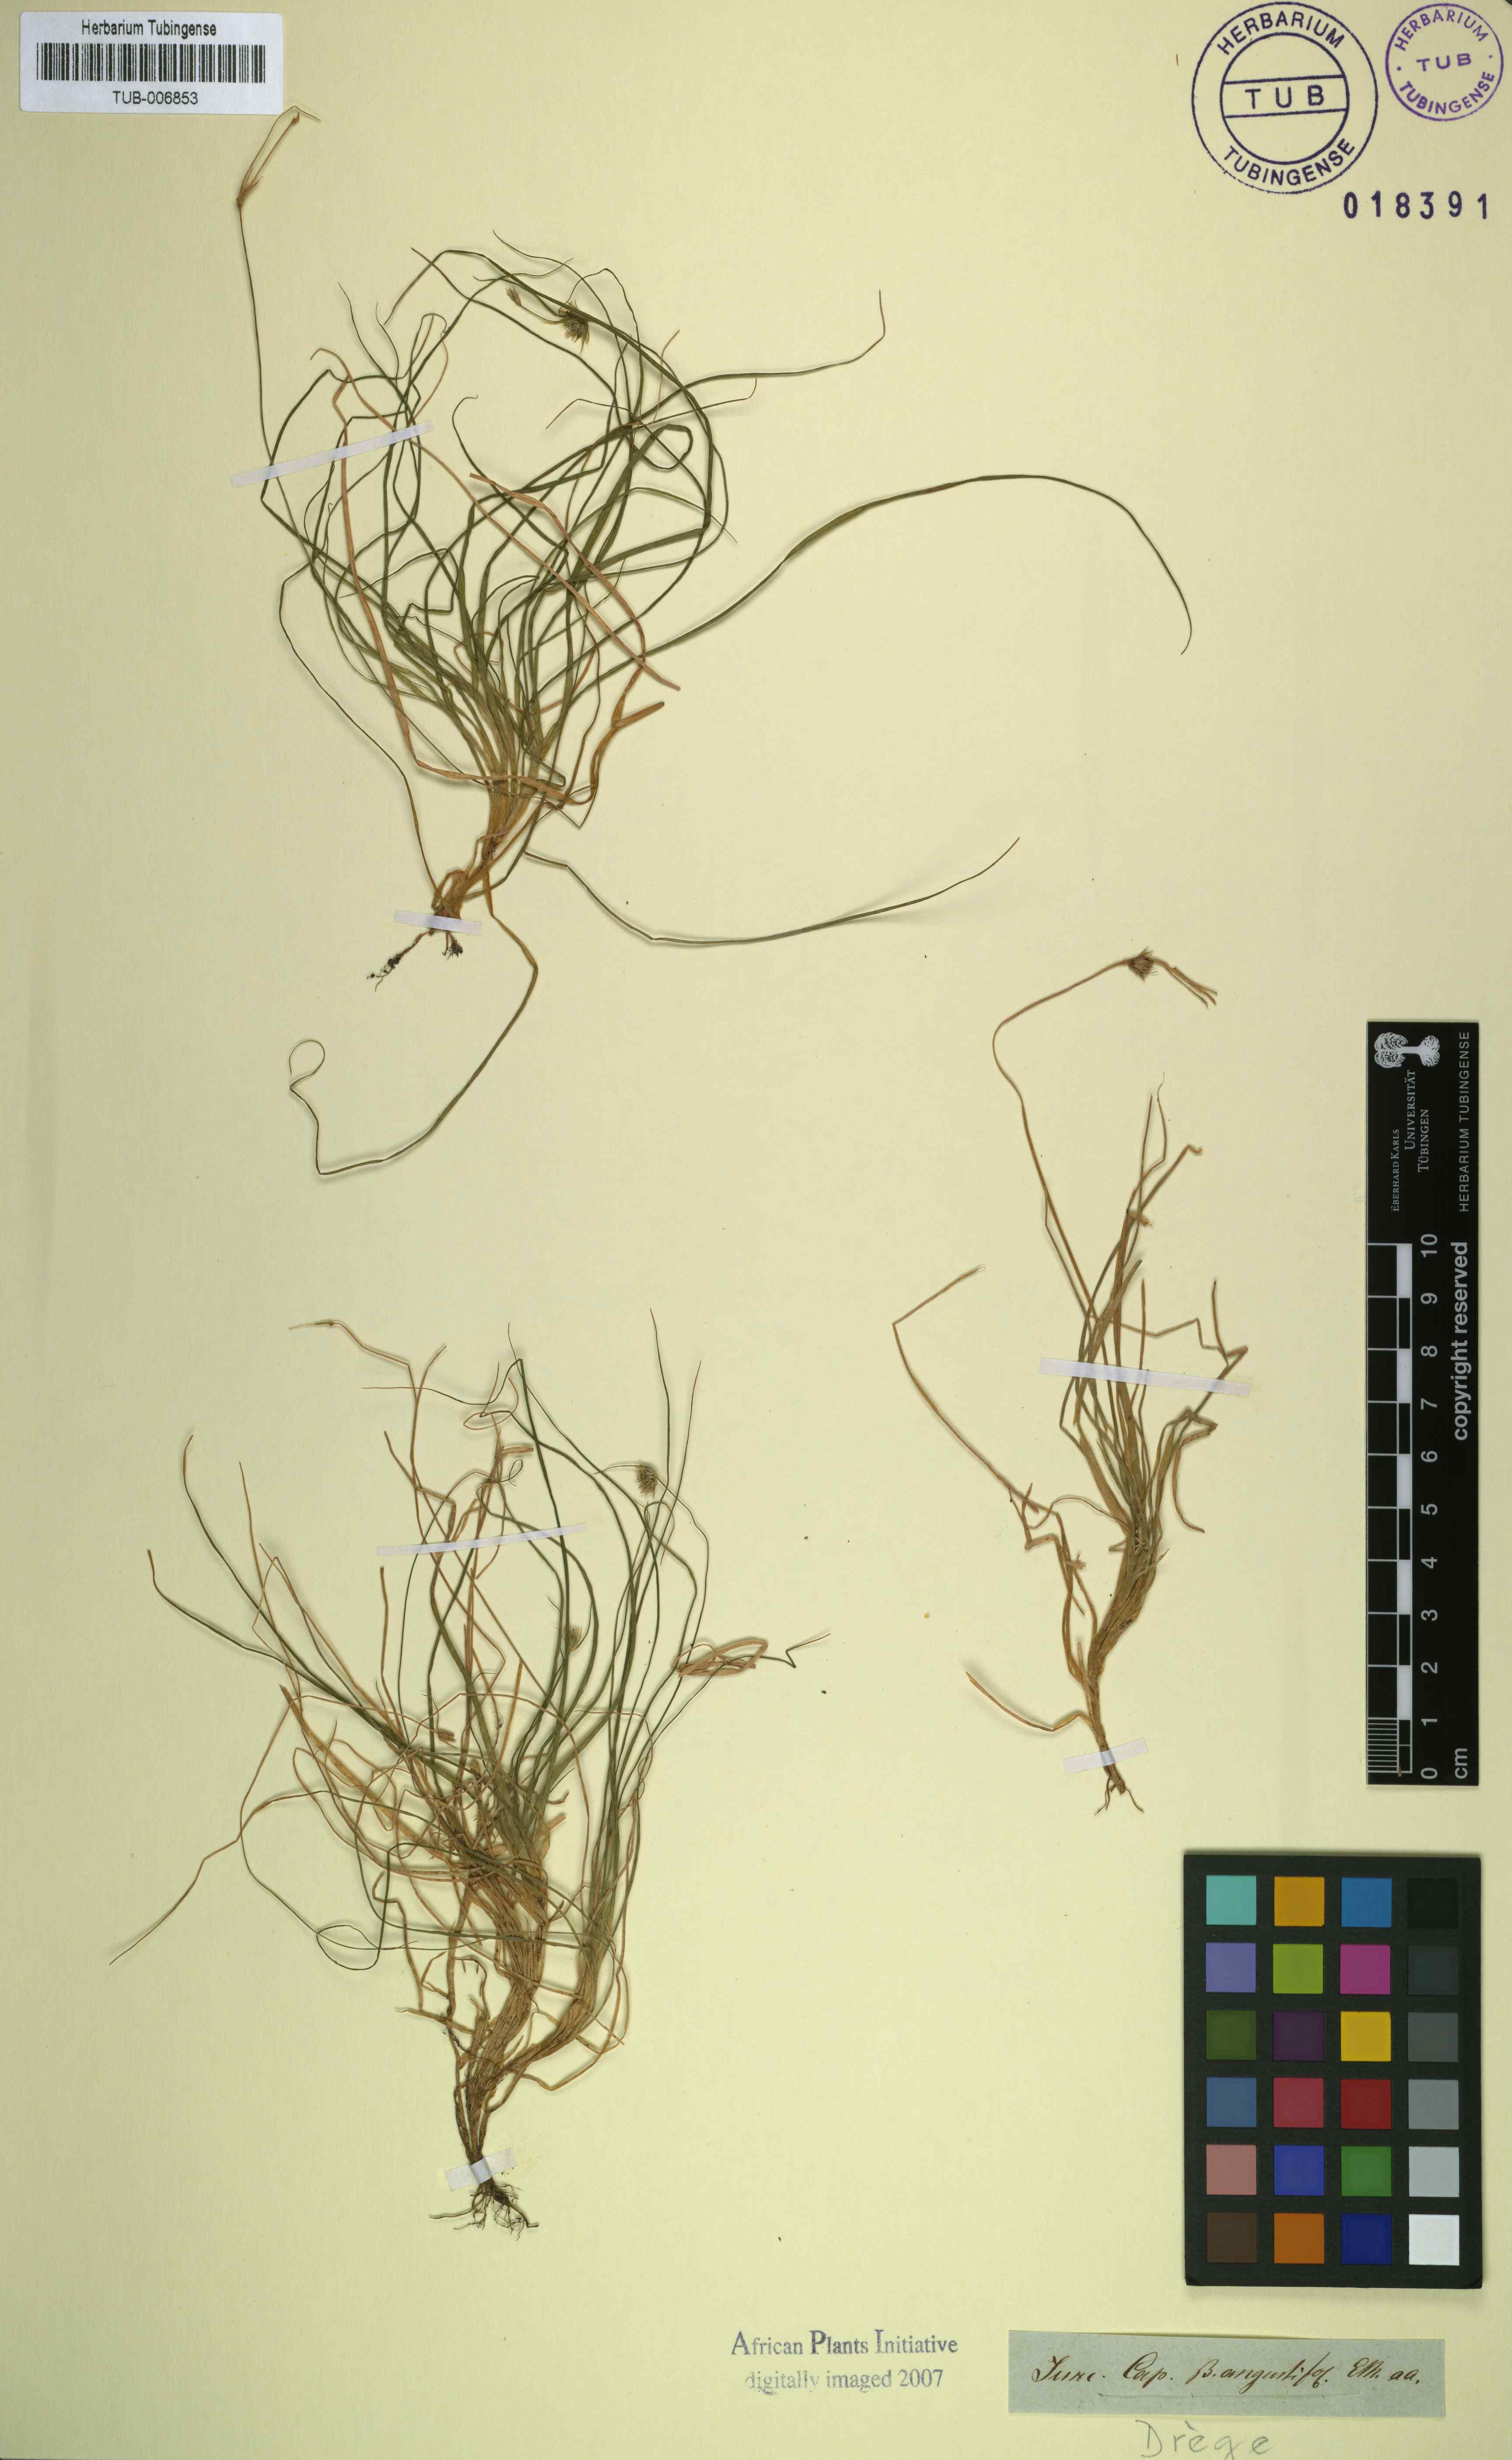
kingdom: Plantae
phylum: Tracheophyta
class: Liliopsida
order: Poales
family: Juncaceae
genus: Juncus
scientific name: Juncus capensis
